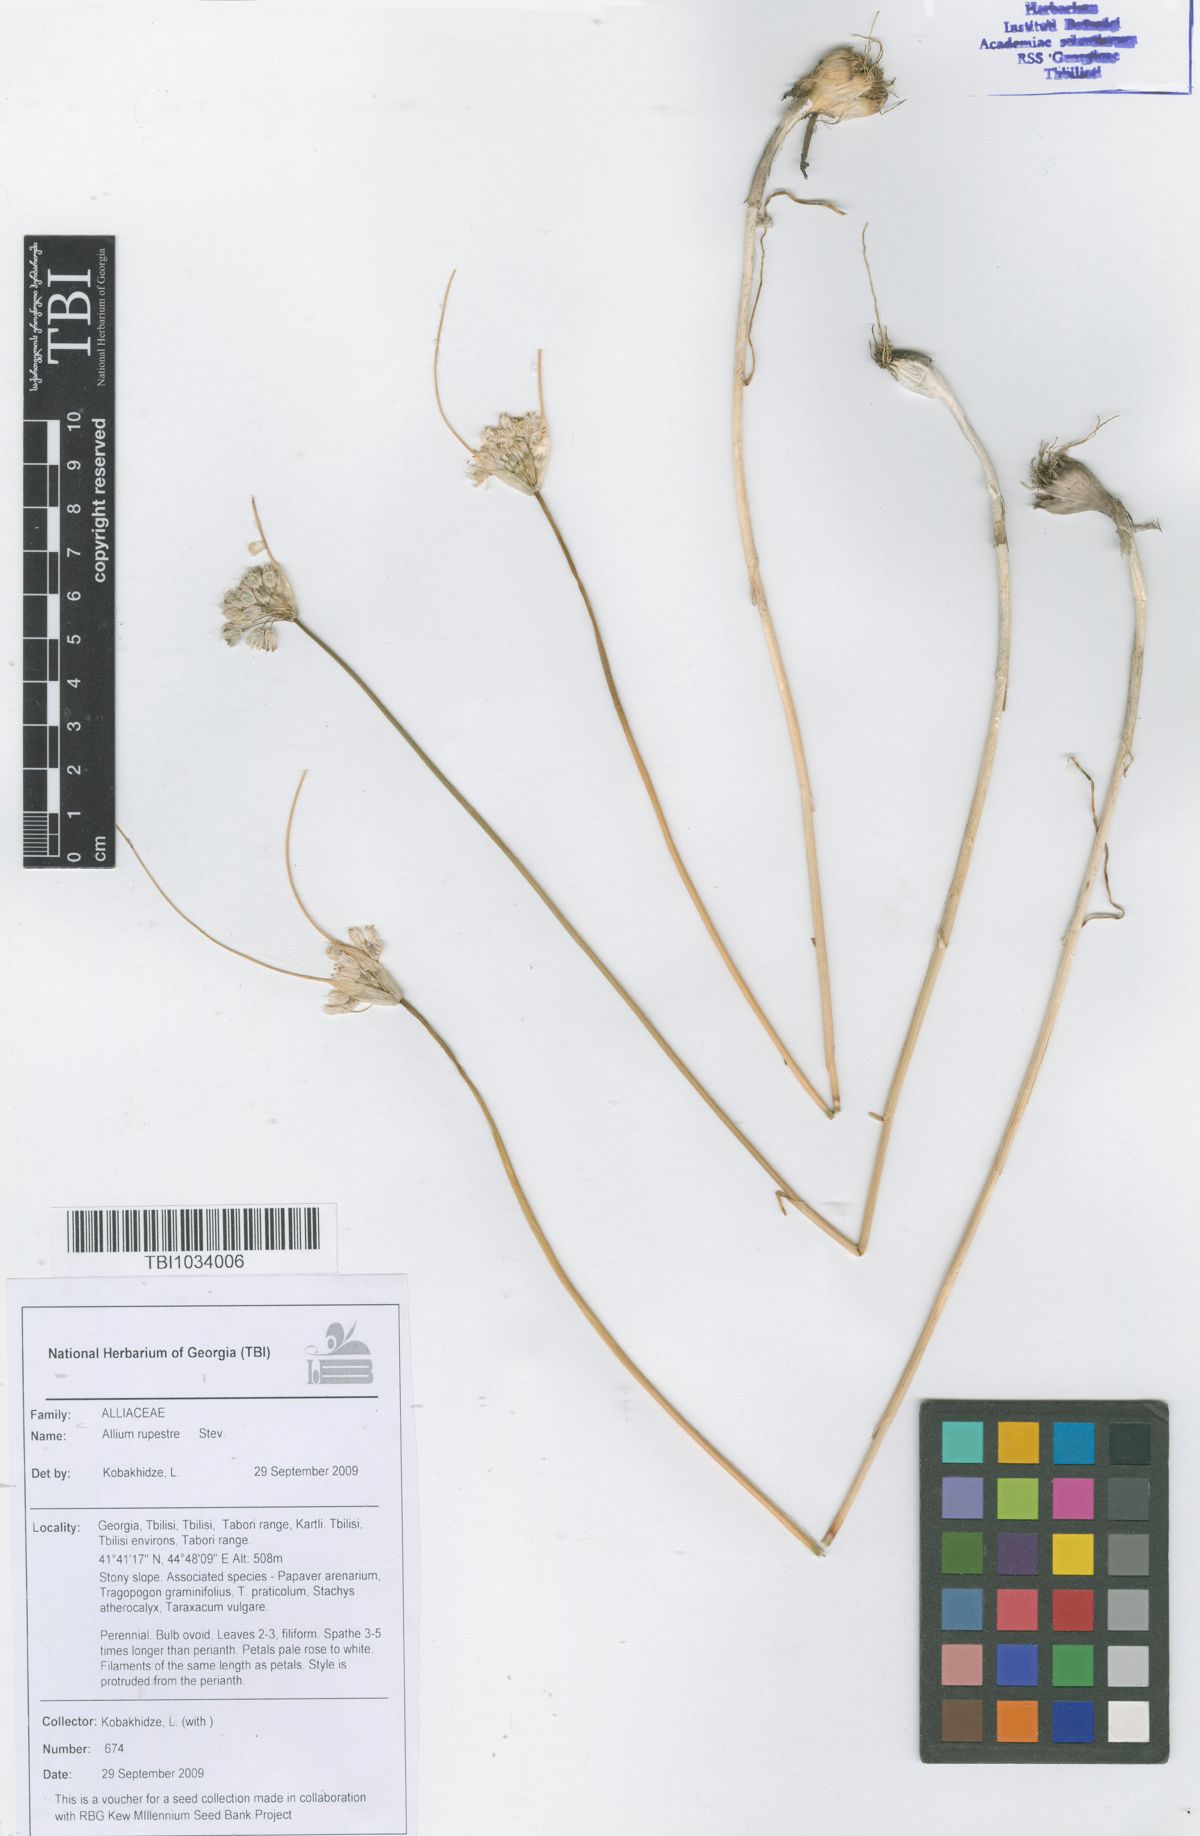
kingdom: Plantae
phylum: Tracheophyta
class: Liliopsida
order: Asparagales
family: Amaryllidaceae
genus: Allium
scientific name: Allium rupestre
